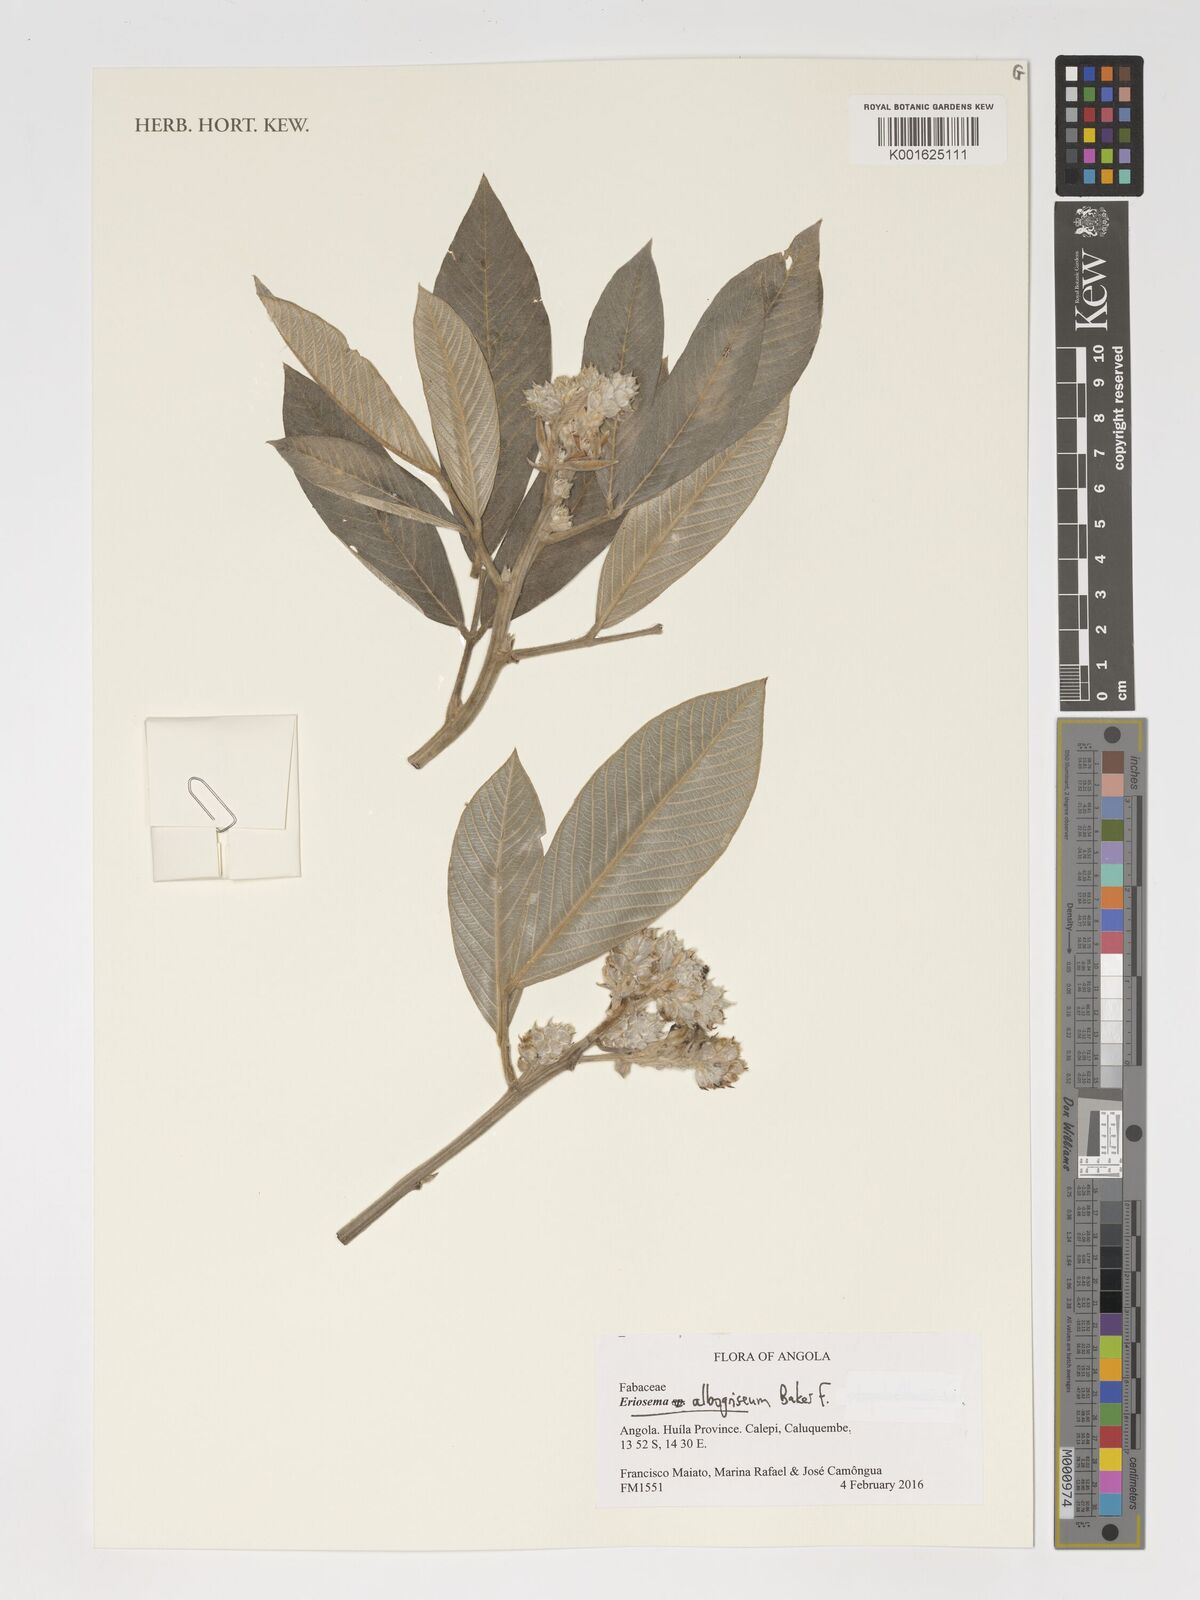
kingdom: Plantae
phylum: Tracheophyta
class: Magnoliopsida
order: Fabales
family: Fabaceae
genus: Eriosema
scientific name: Eriosema albogriseum
